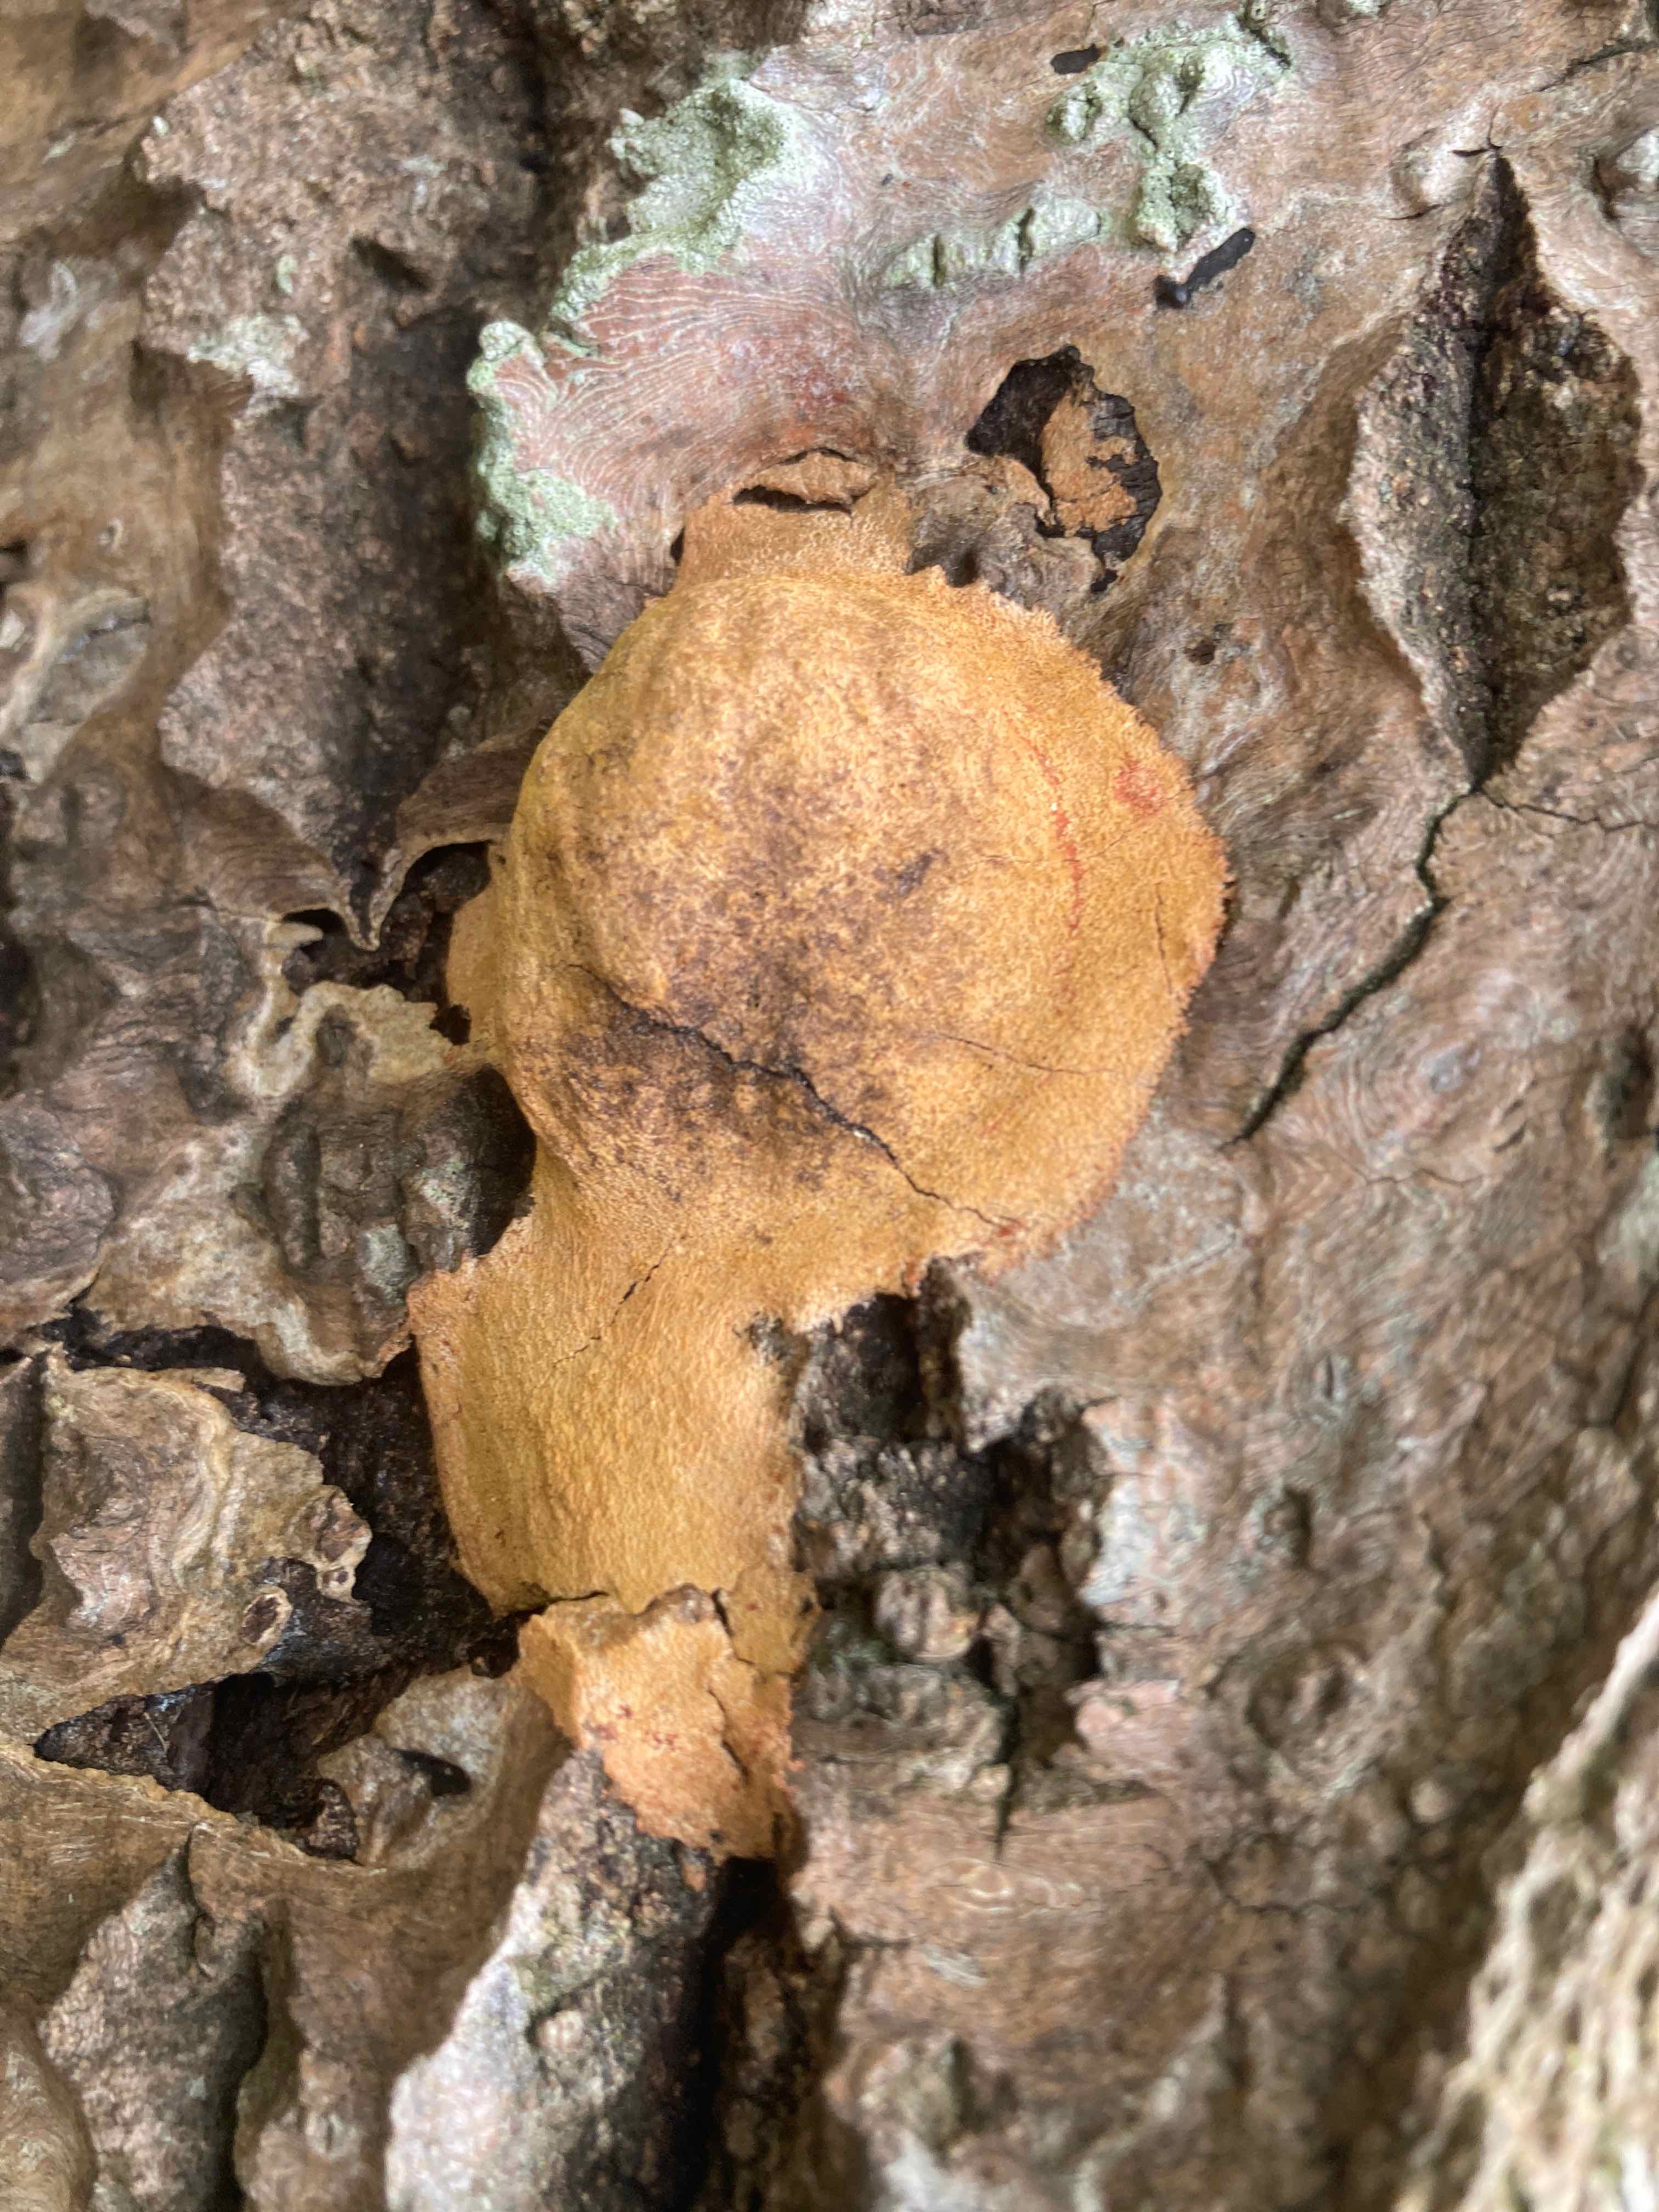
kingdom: Protozoa
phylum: Mycetozoa
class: Myxomycetes
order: Physarales
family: Physaraceae
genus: Fuligo
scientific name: Fuligo
